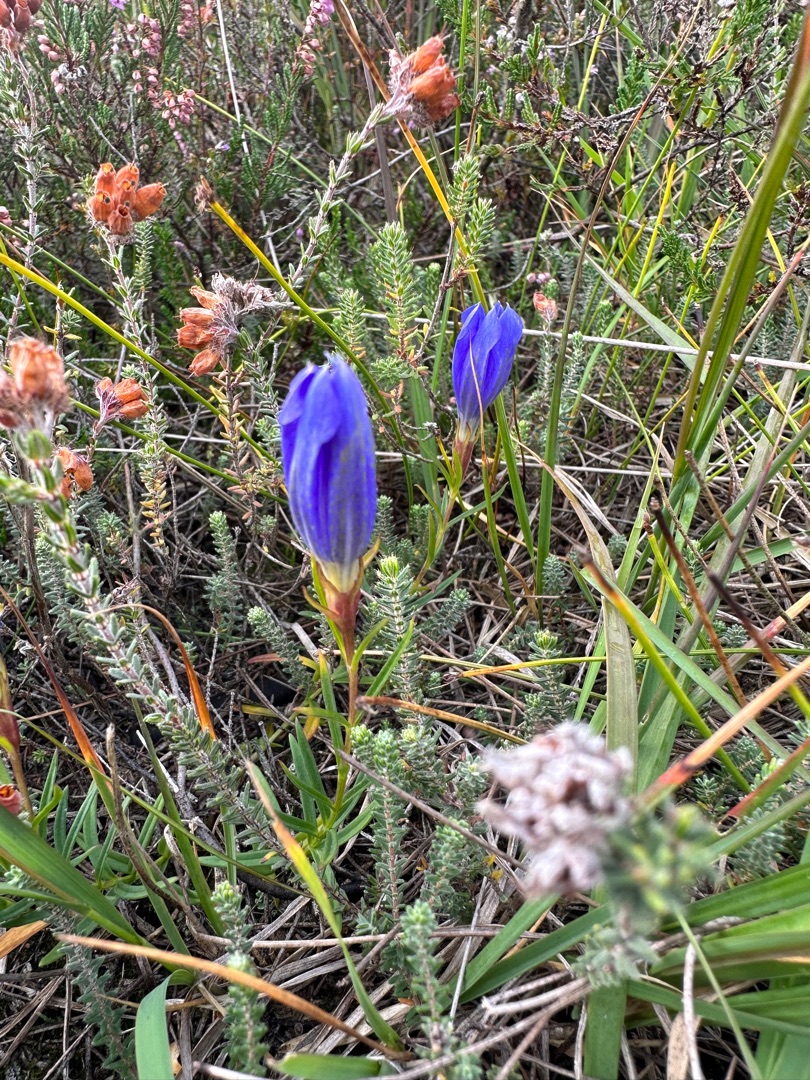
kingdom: Plantae
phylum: Tracheophyta
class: Magnoliopsida
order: Gentianales
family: Gentianaceae
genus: Gentiana
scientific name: Gentiana pneumonanthe
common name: Klokke-ensian
